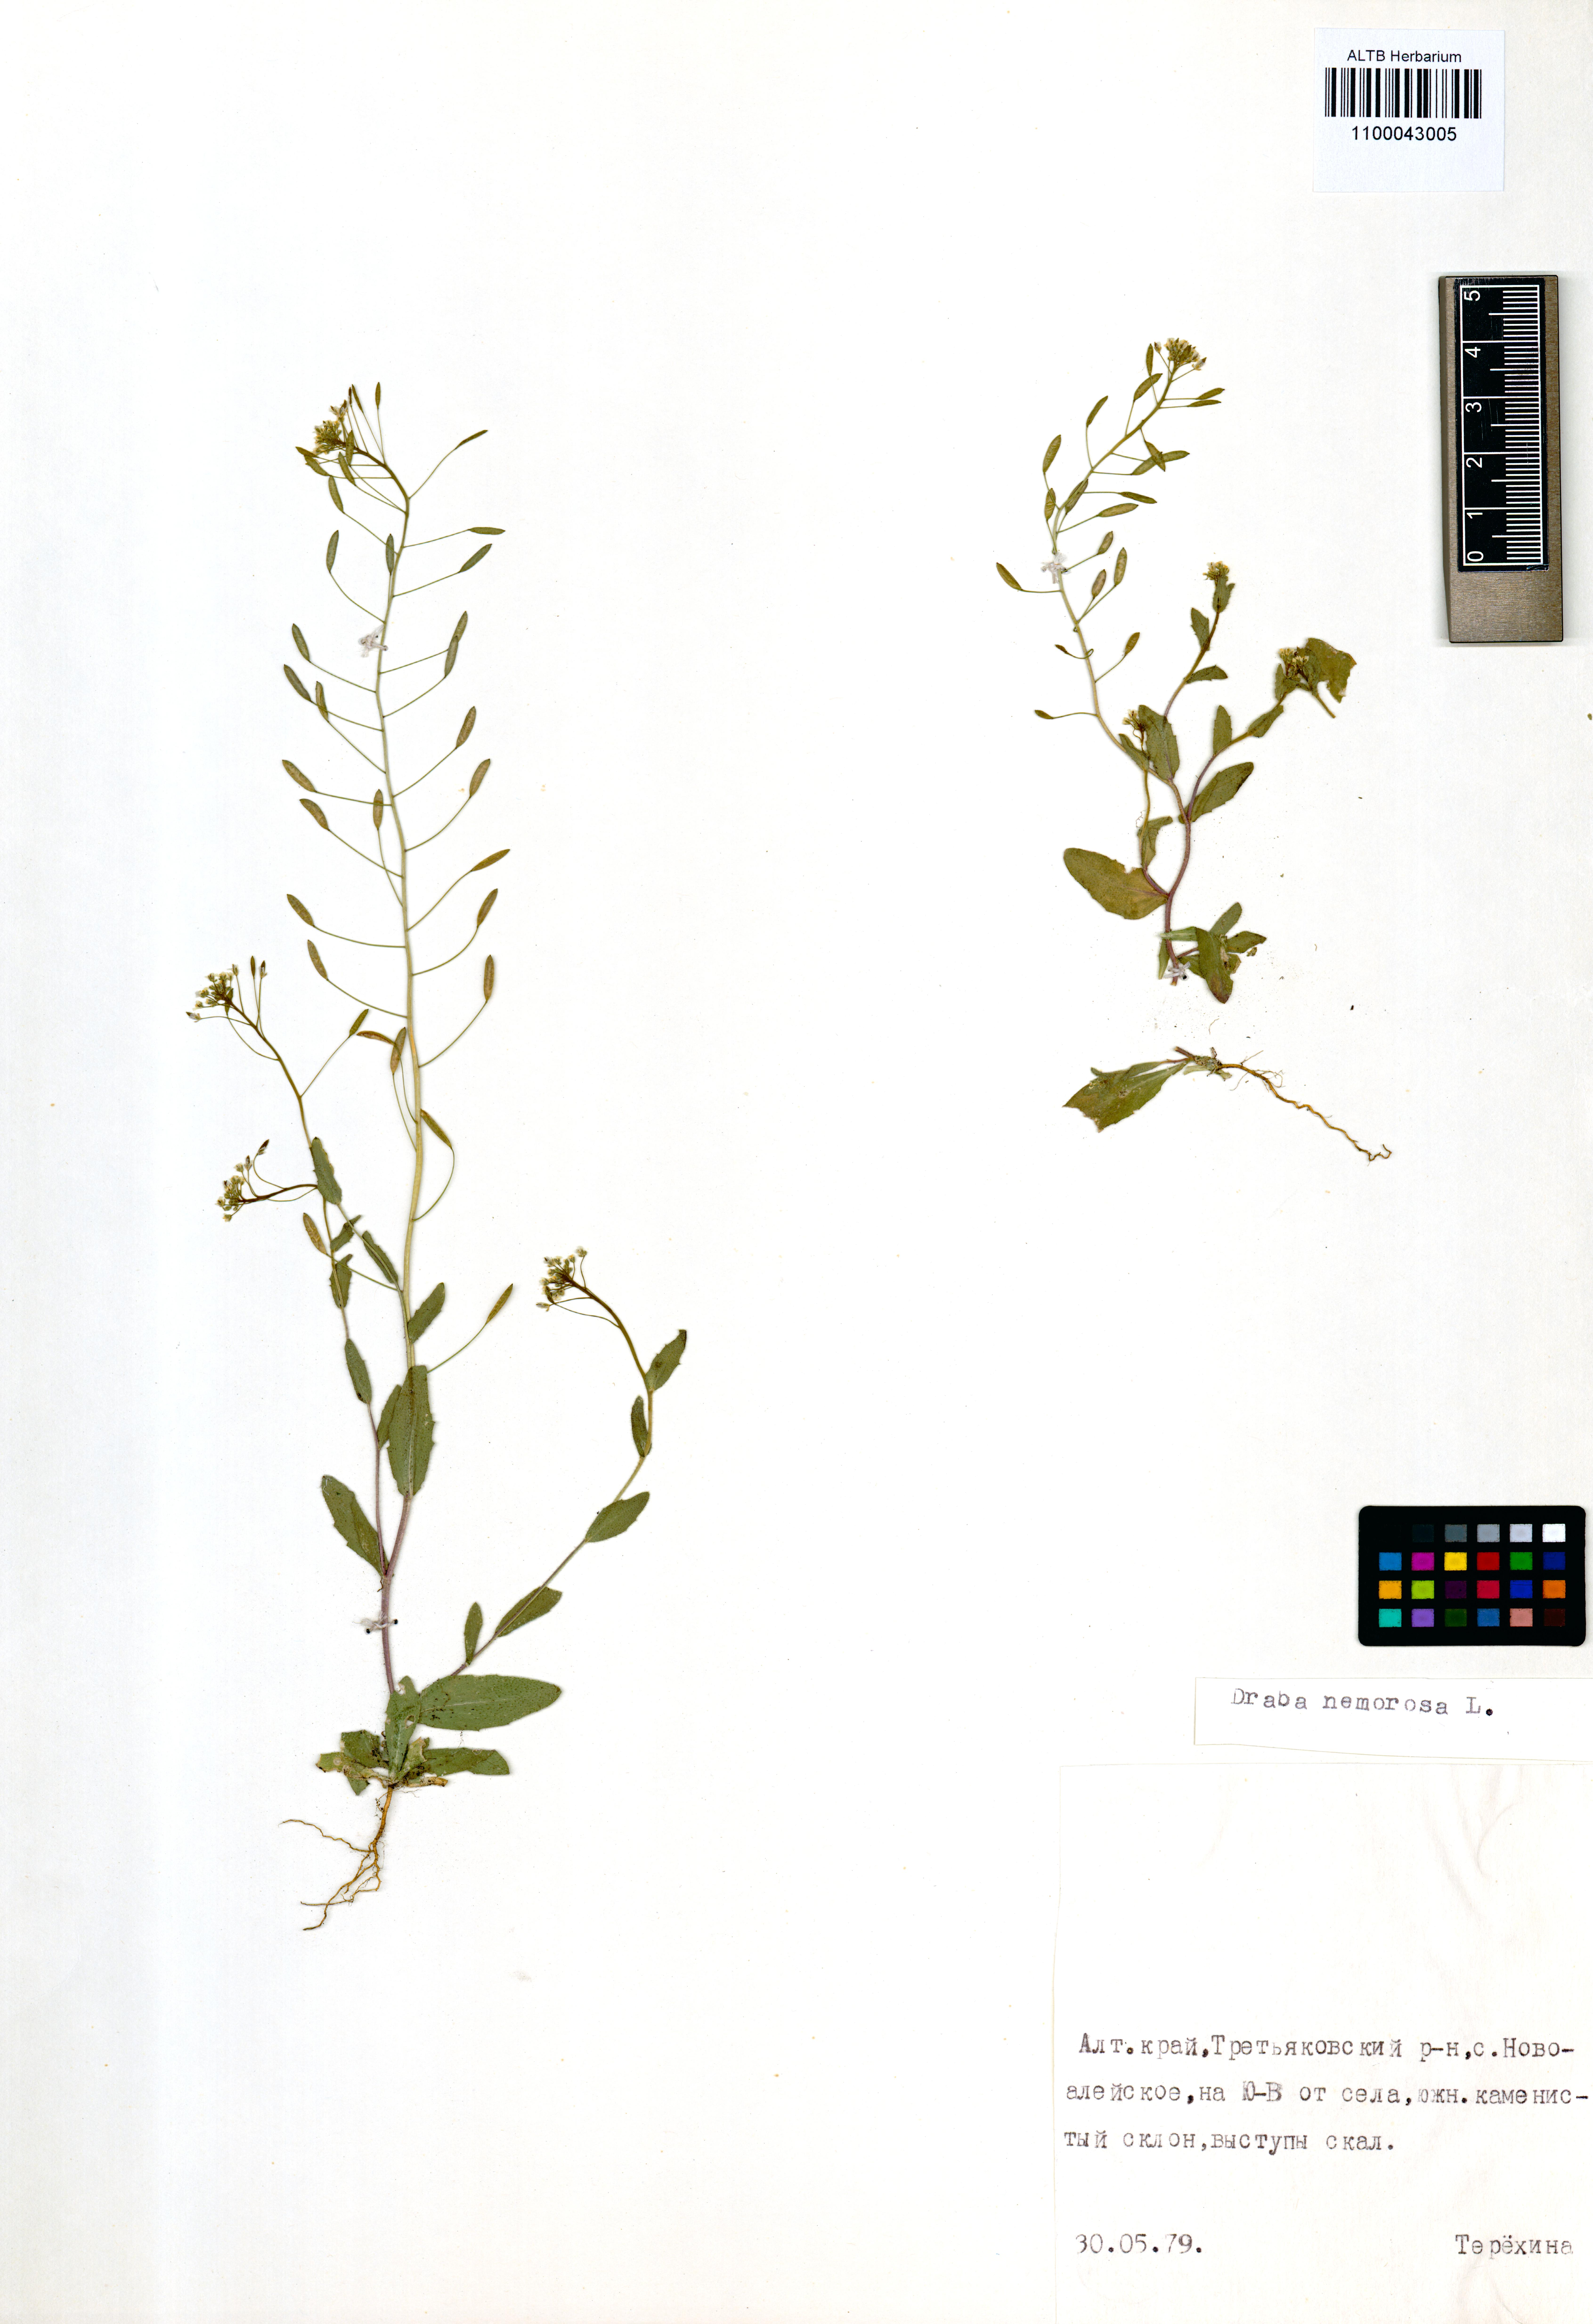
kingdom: Plantae
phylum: Tracheophyta
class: Magnoliopsida
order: Brassicales
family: Brassicaceae
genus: Draba
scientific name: Draba nemorosa
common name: Wood whitlow-grass
